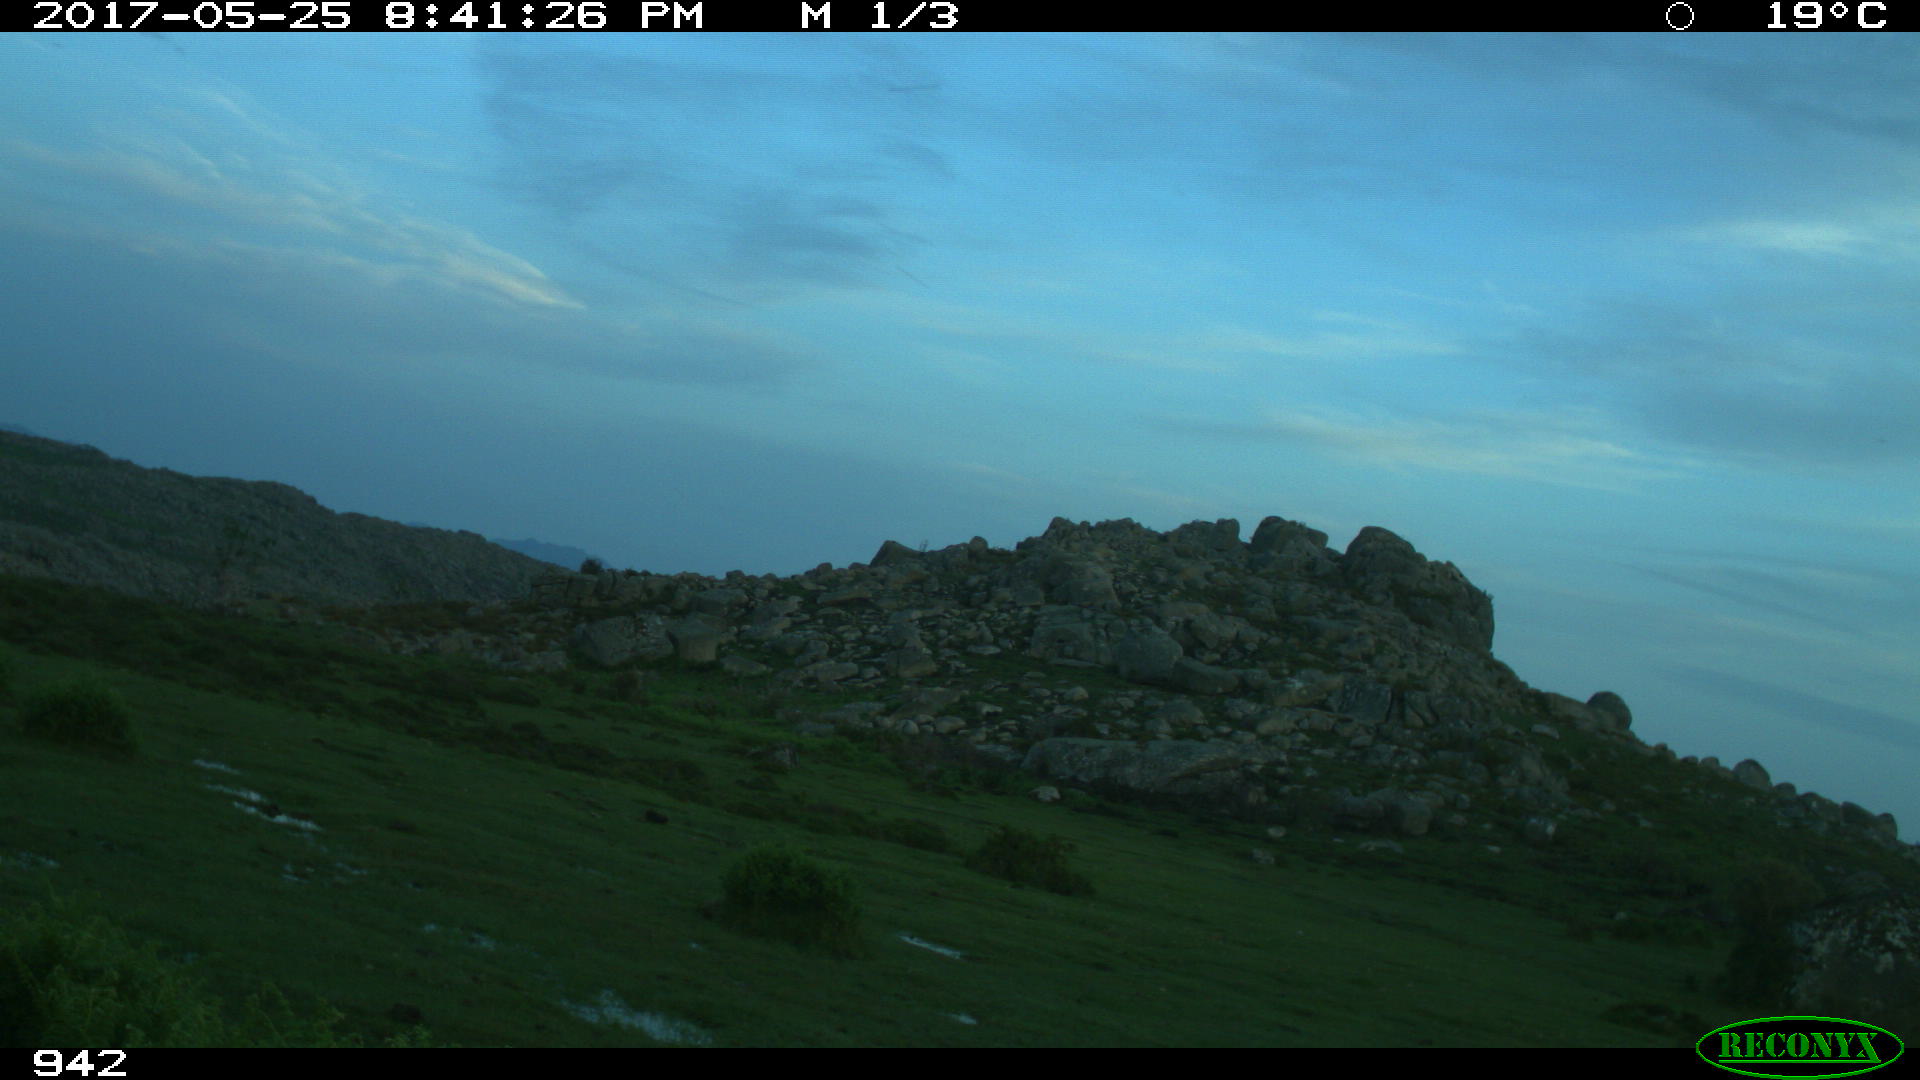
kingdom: Animalia
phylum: Chordata
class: Mammalia
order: Artiodactyla
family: Bovidae
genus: Bos
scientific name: Bos taurus
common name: Domesticated cattle
